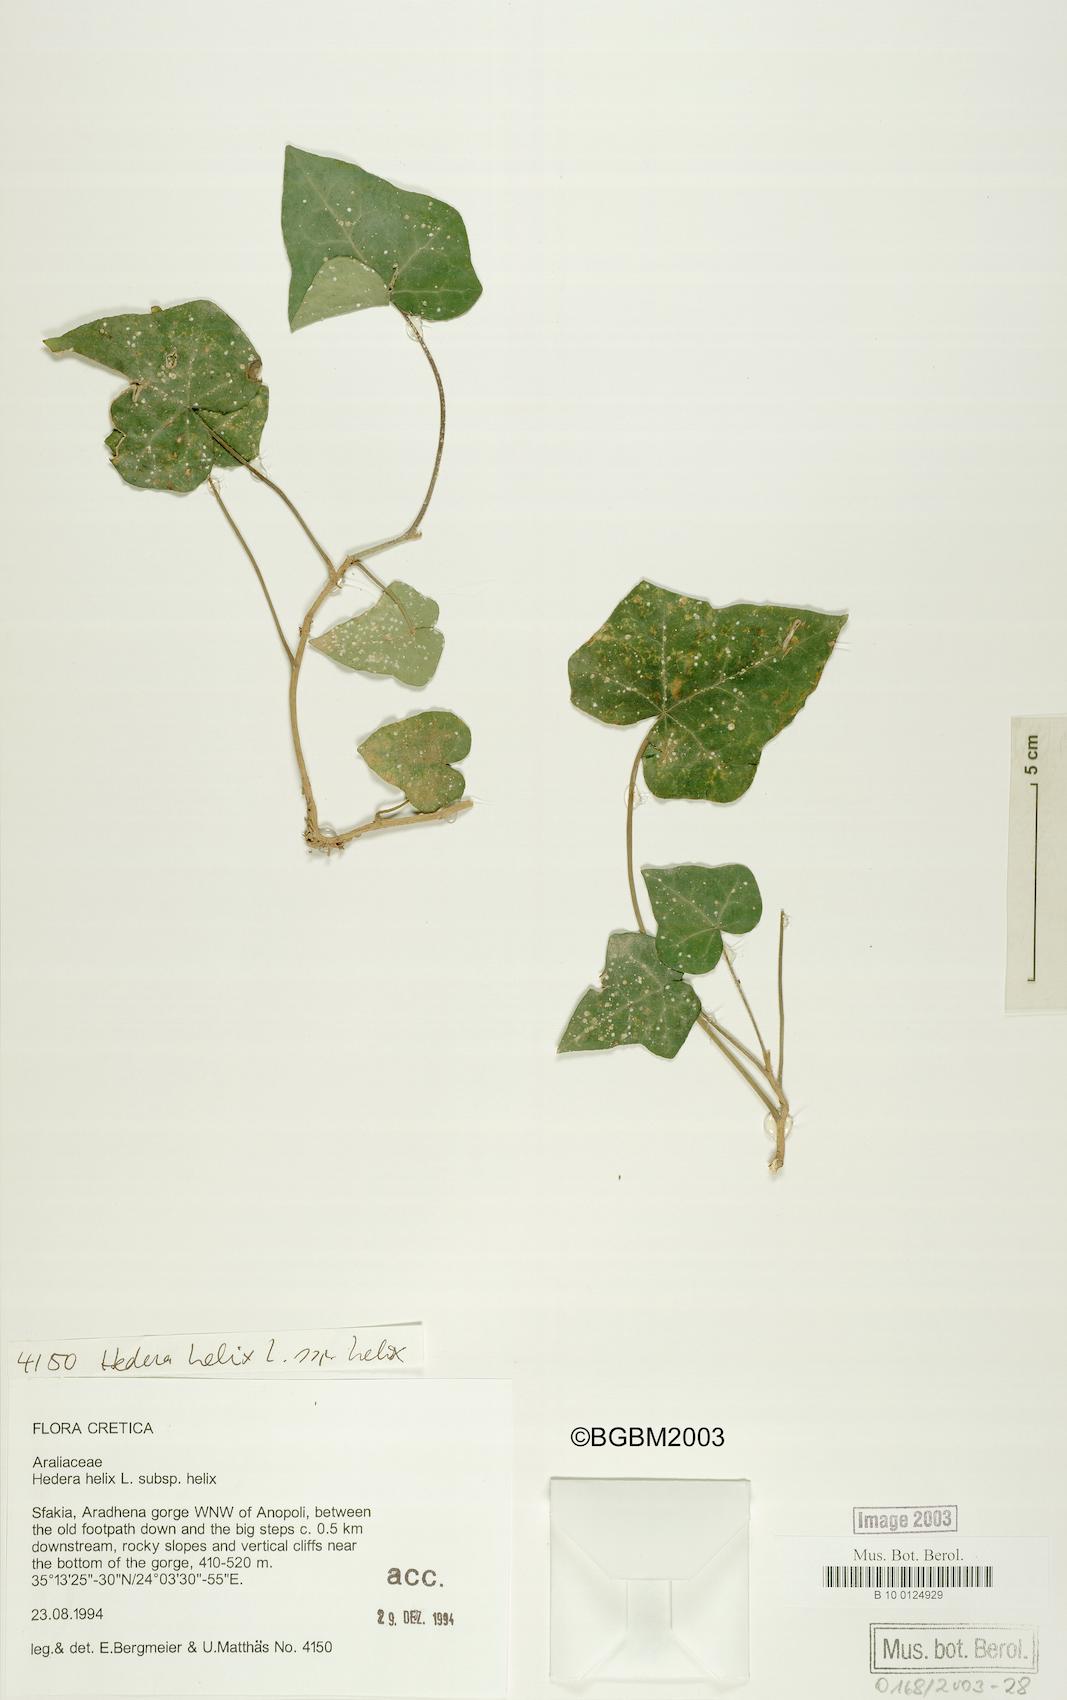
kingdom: Plantae
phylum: Tracheophyta
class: Magnoliopsida
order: Apiales
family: Araliaceae
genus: Hedera
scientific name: Hedera helix
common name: Ivy
